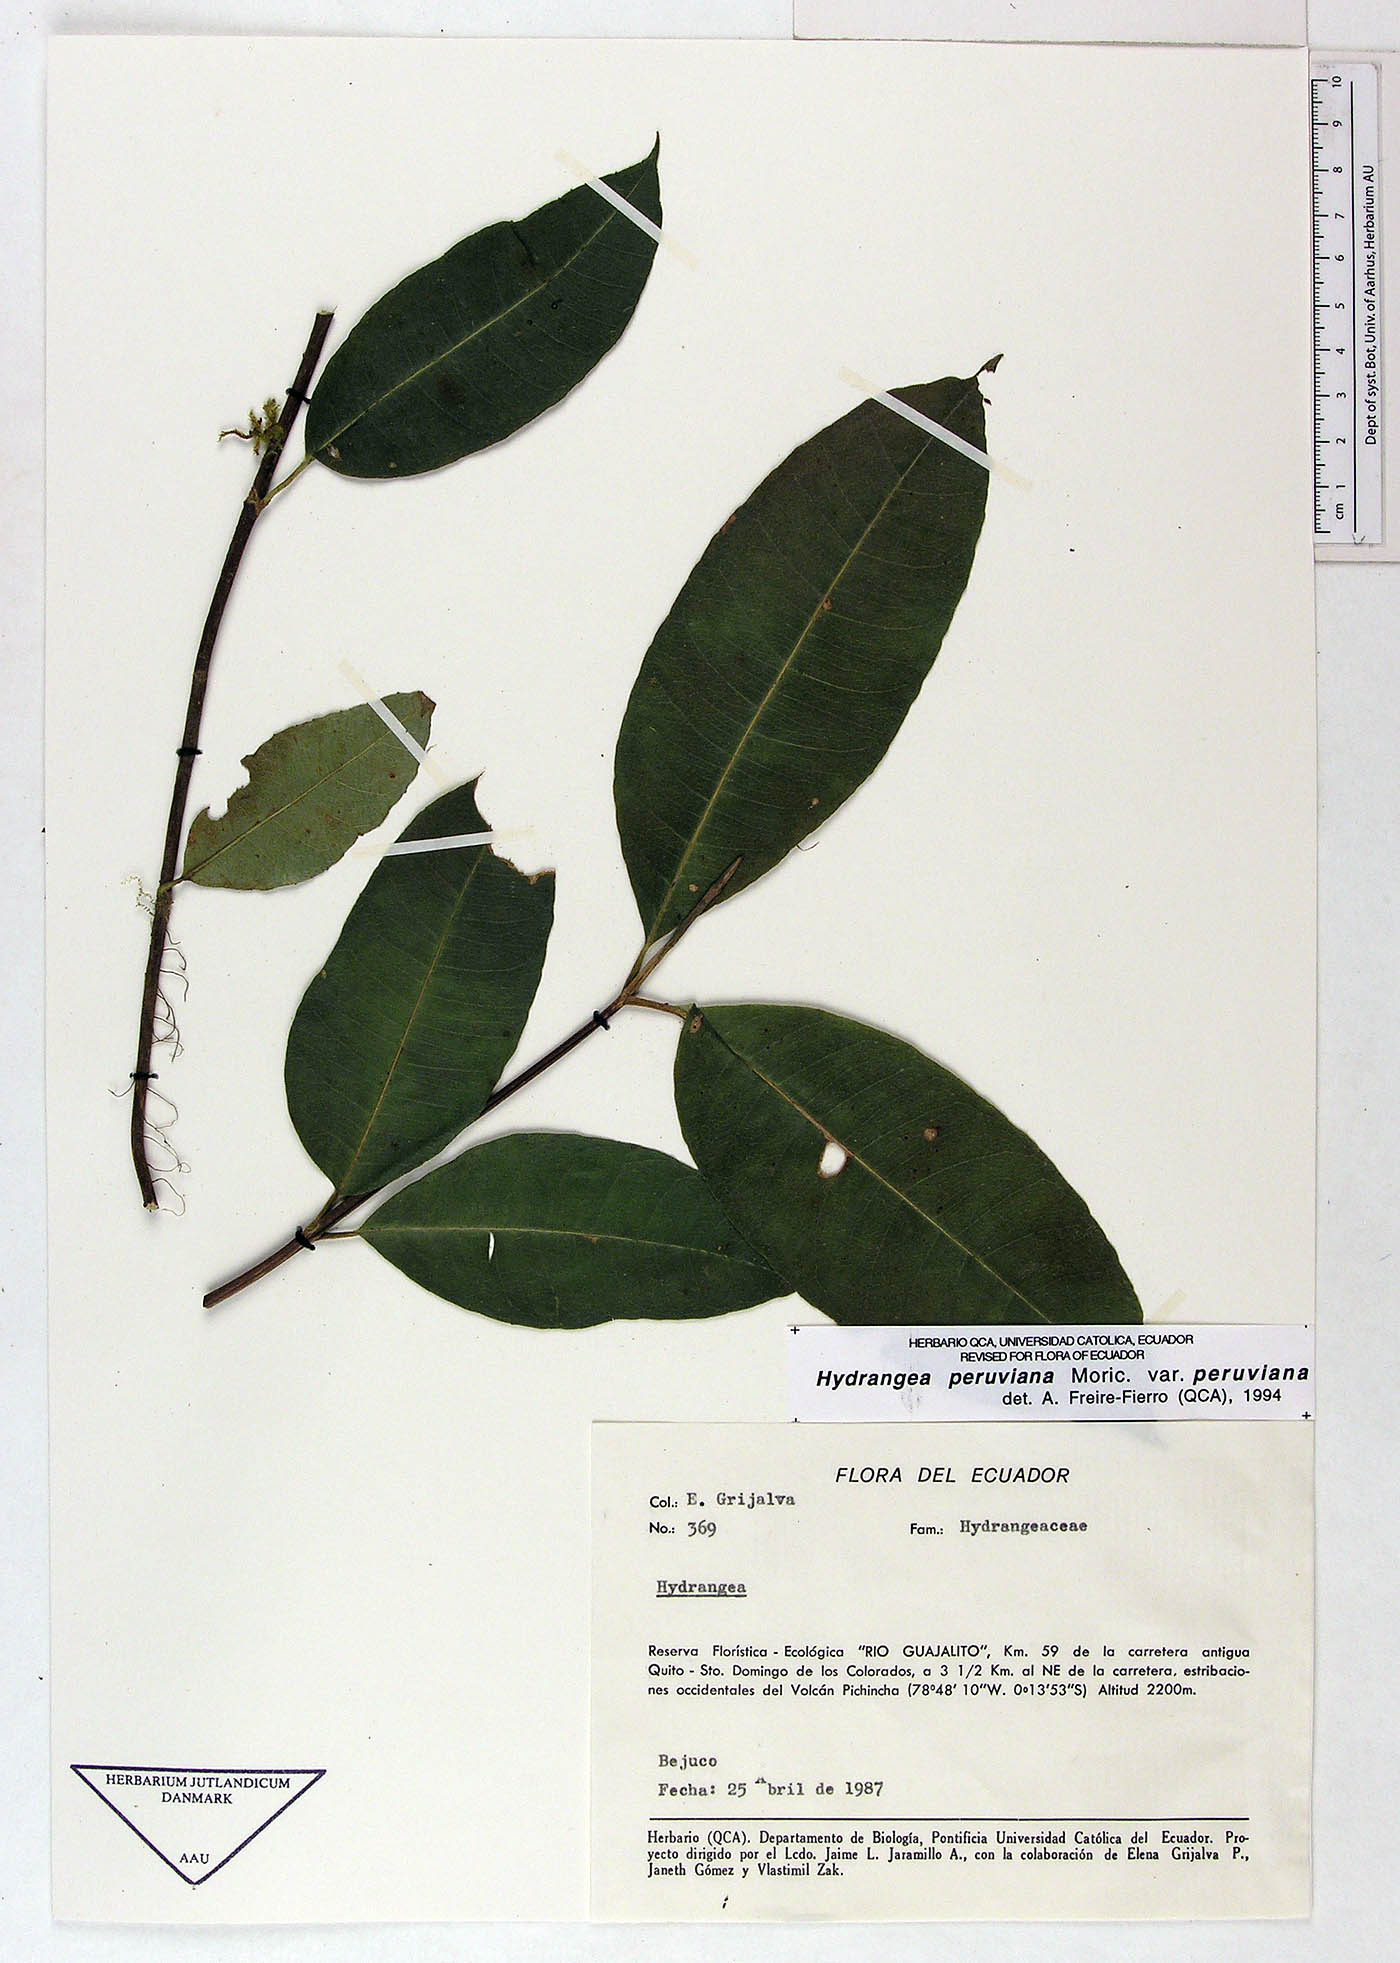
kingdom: Plantae
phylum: Tracheophyta
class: Magnoliopsida
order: Cornales
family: Hydrangeaceae
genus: Hydrangea
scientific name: Hydrangea peruviana
